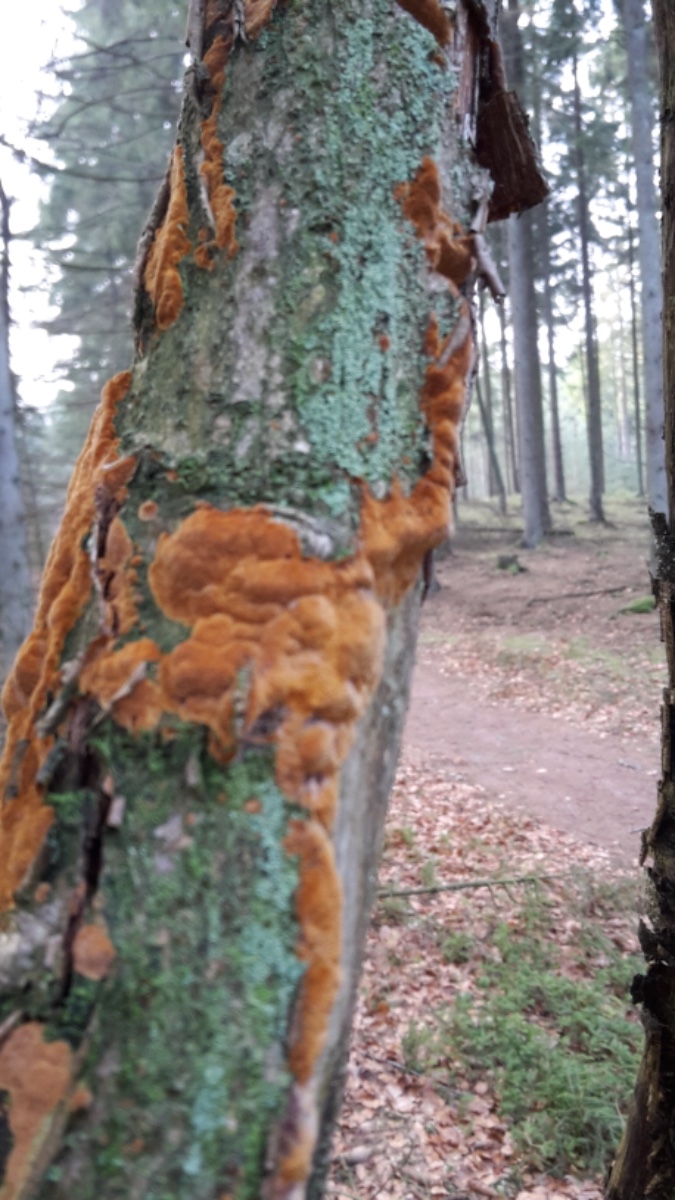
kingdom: Fungi
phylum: Basidiomycota
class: Agaricomycetes
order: Hymenochaetales
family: Hymenochaetaceae
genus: Fuscoporia
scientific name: Fuscoporia ferrea
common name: skorpe-ildporesvamp
